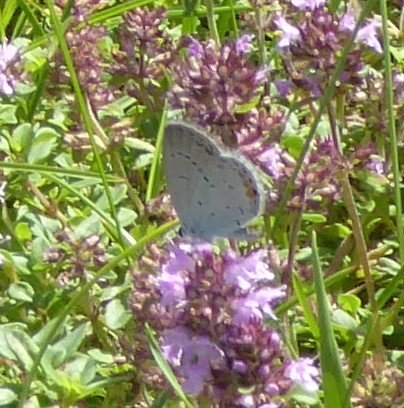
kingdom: Animalia
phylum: Arthropoda
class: Insecta
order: Lepidoptera
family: Lycaenidae
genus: Elkalyce
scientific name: Elkalyce comyntas
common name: Eastern Tailed-Blue
